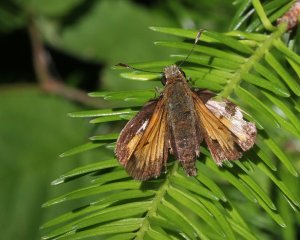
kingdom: Animalia
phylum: Arthropoda
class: Insecta
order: Lepidoptera
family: Hesperiidae
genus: Lon
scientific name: Lon hobomok
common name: Hobomok Skipper
